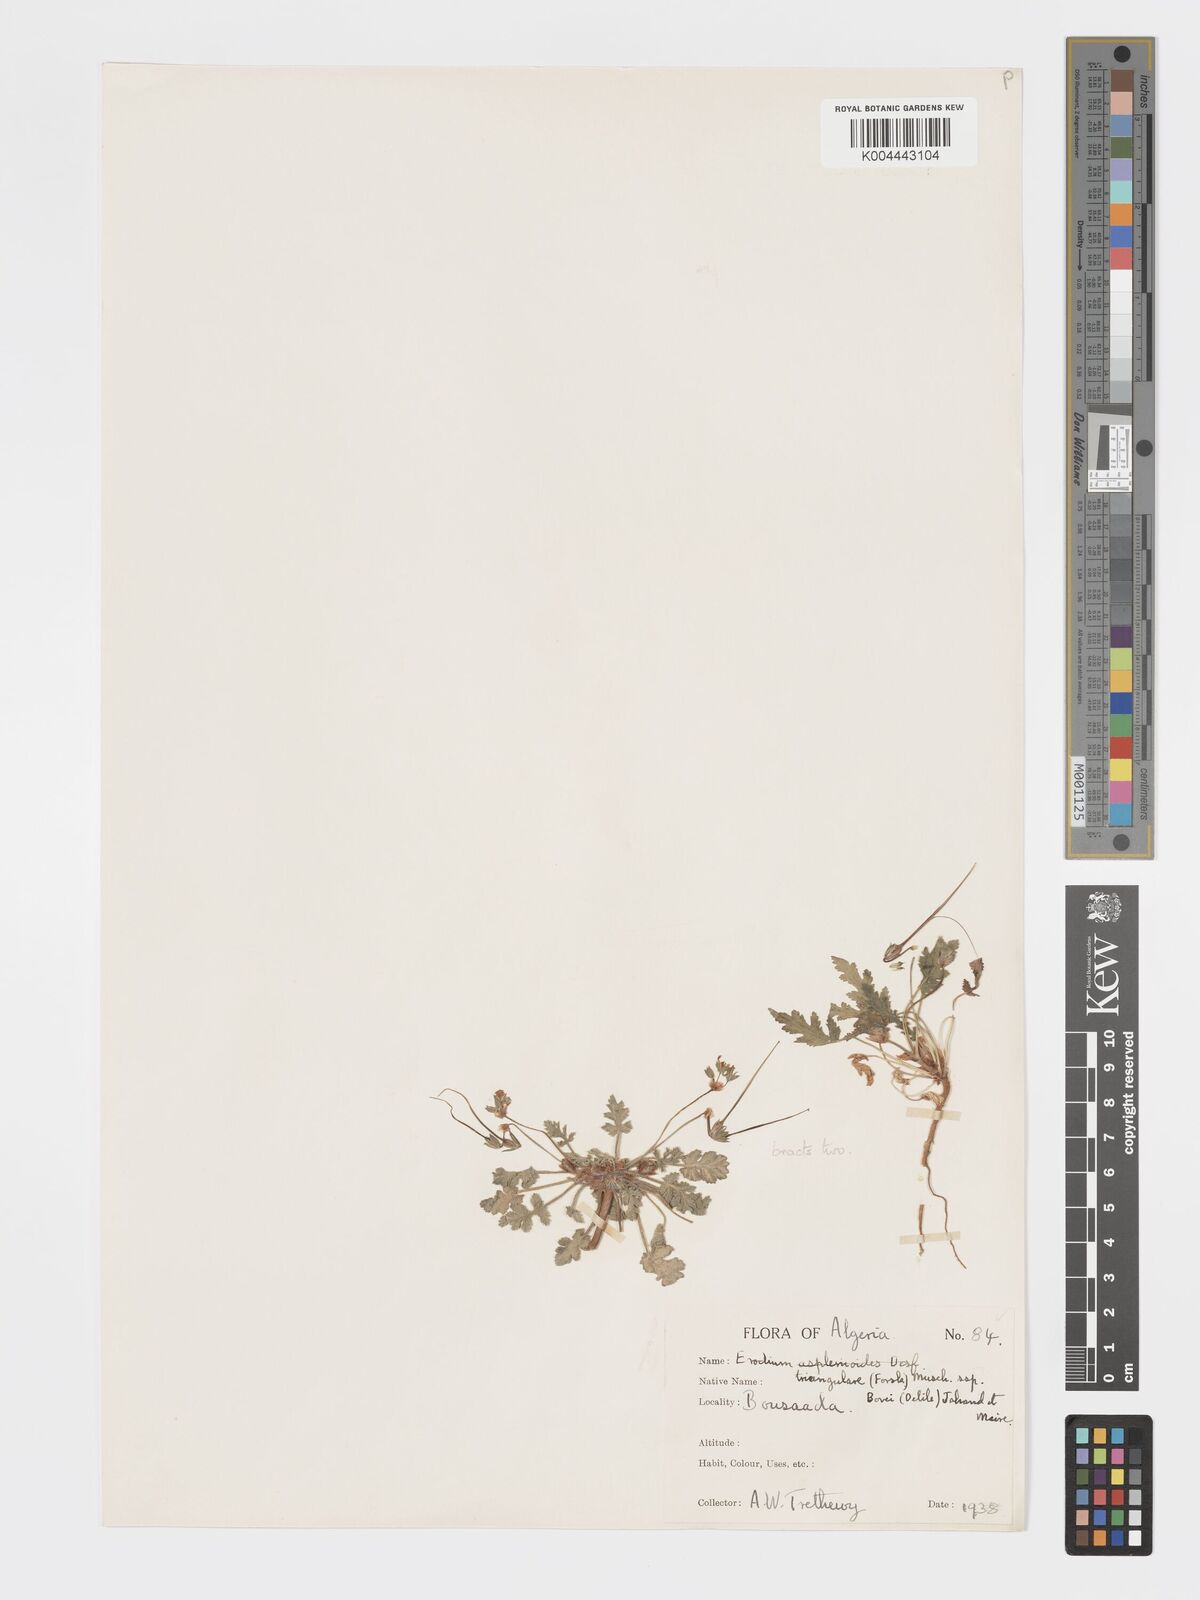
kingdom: Plantae
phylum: Tracheophyta
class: Magnoliopsida
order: Geraniales
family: Geraniaceae
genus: Erodium
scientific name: Erodium laciniatum
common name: Cutleaf stork's bill
